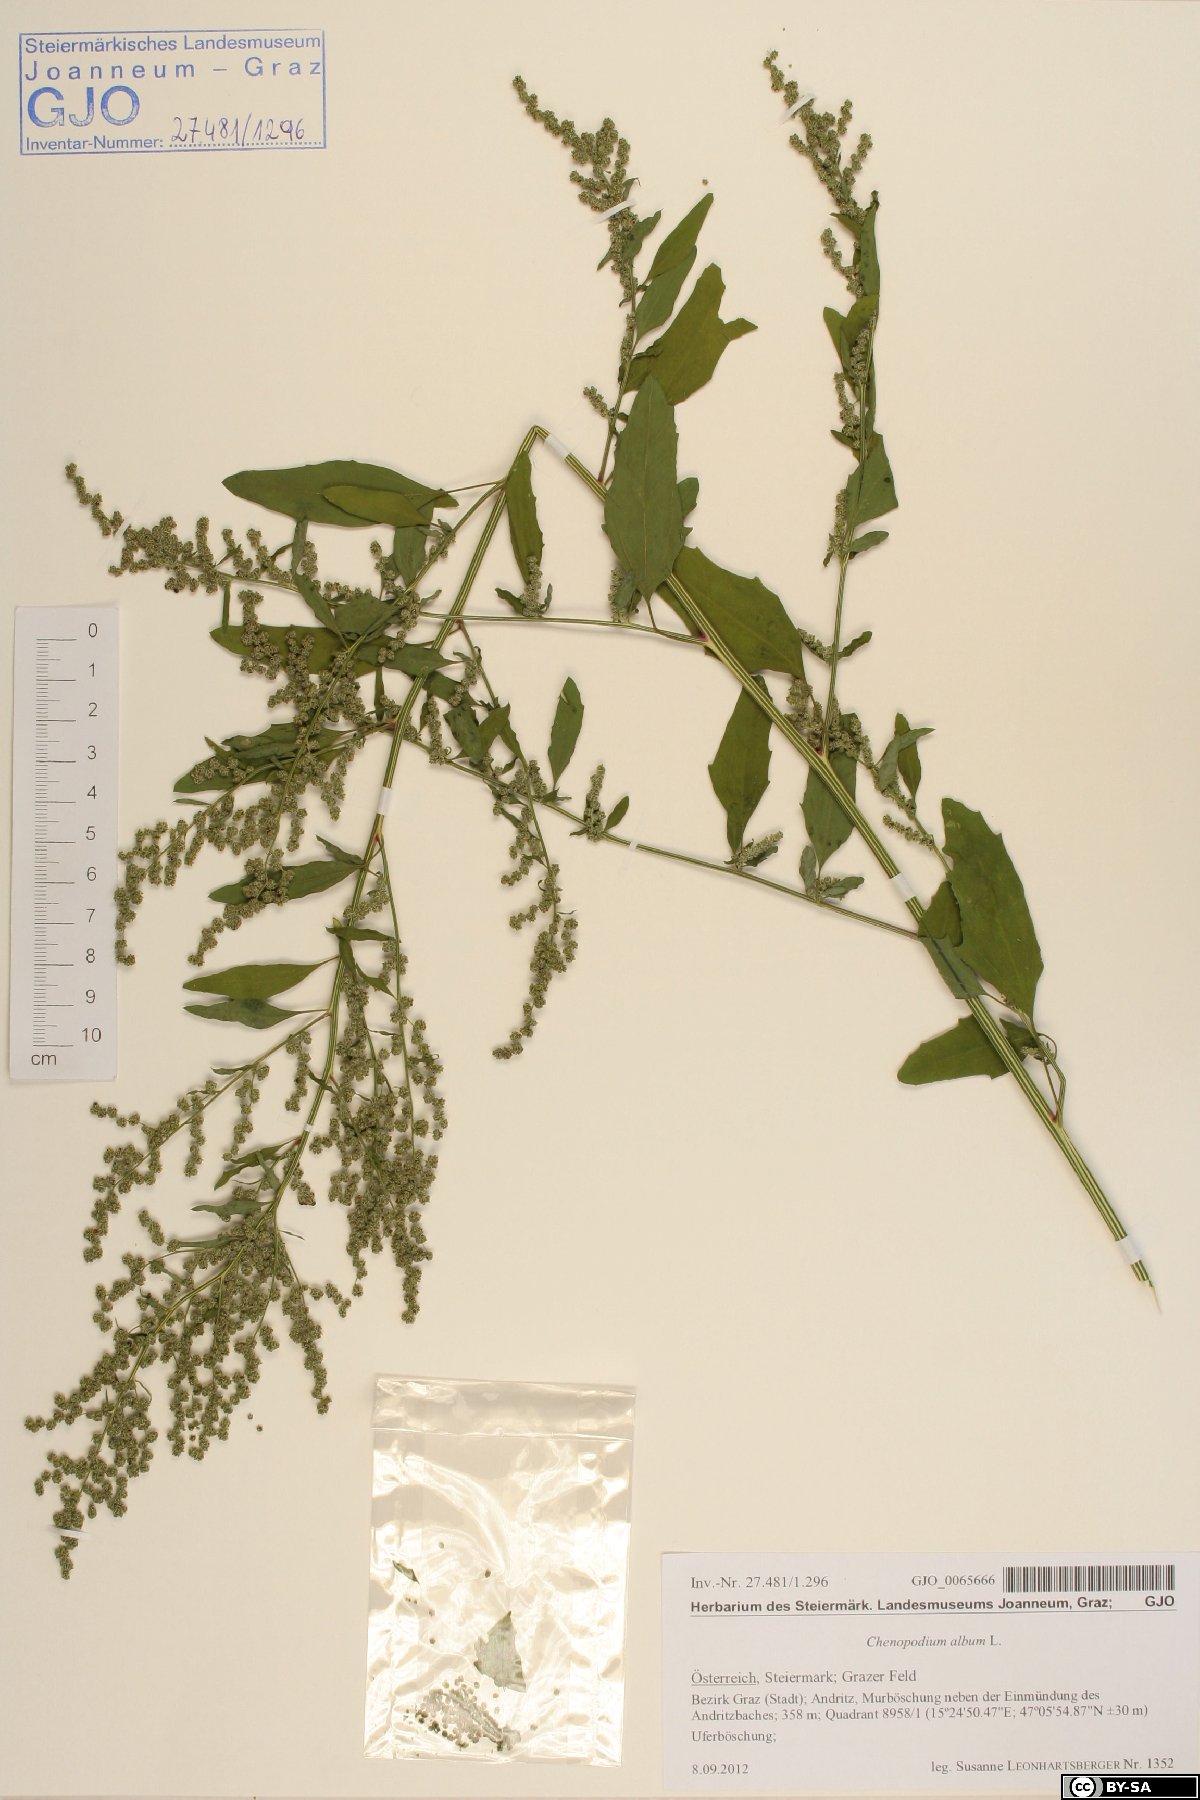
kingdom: Plantae
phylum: Tracheophyta
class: Magnoliopsida
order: Caryophyllales
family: Amaranthaceae
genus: Chenopodium
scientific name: Chenopodium album
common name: Fat-hen
